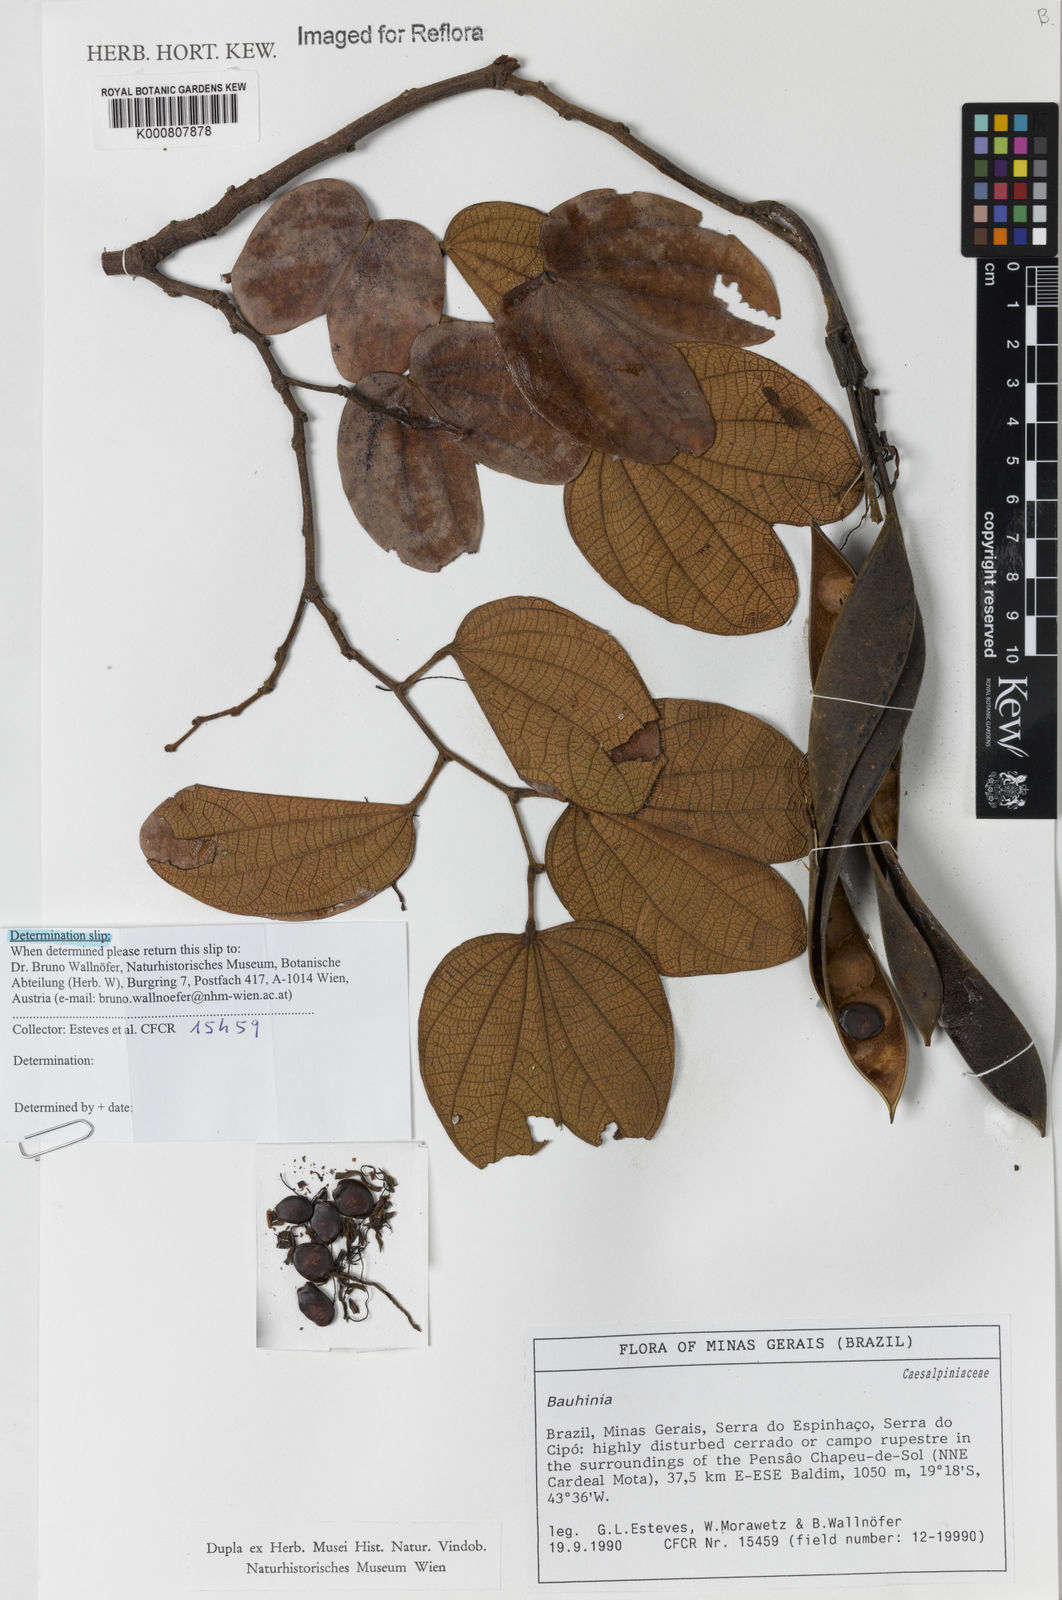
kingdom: Plantae
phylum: Tracheophyta
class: Magnoliopsida
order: Fabales
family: Fabaceae
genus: Bauhinia
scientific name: Bauhinia
